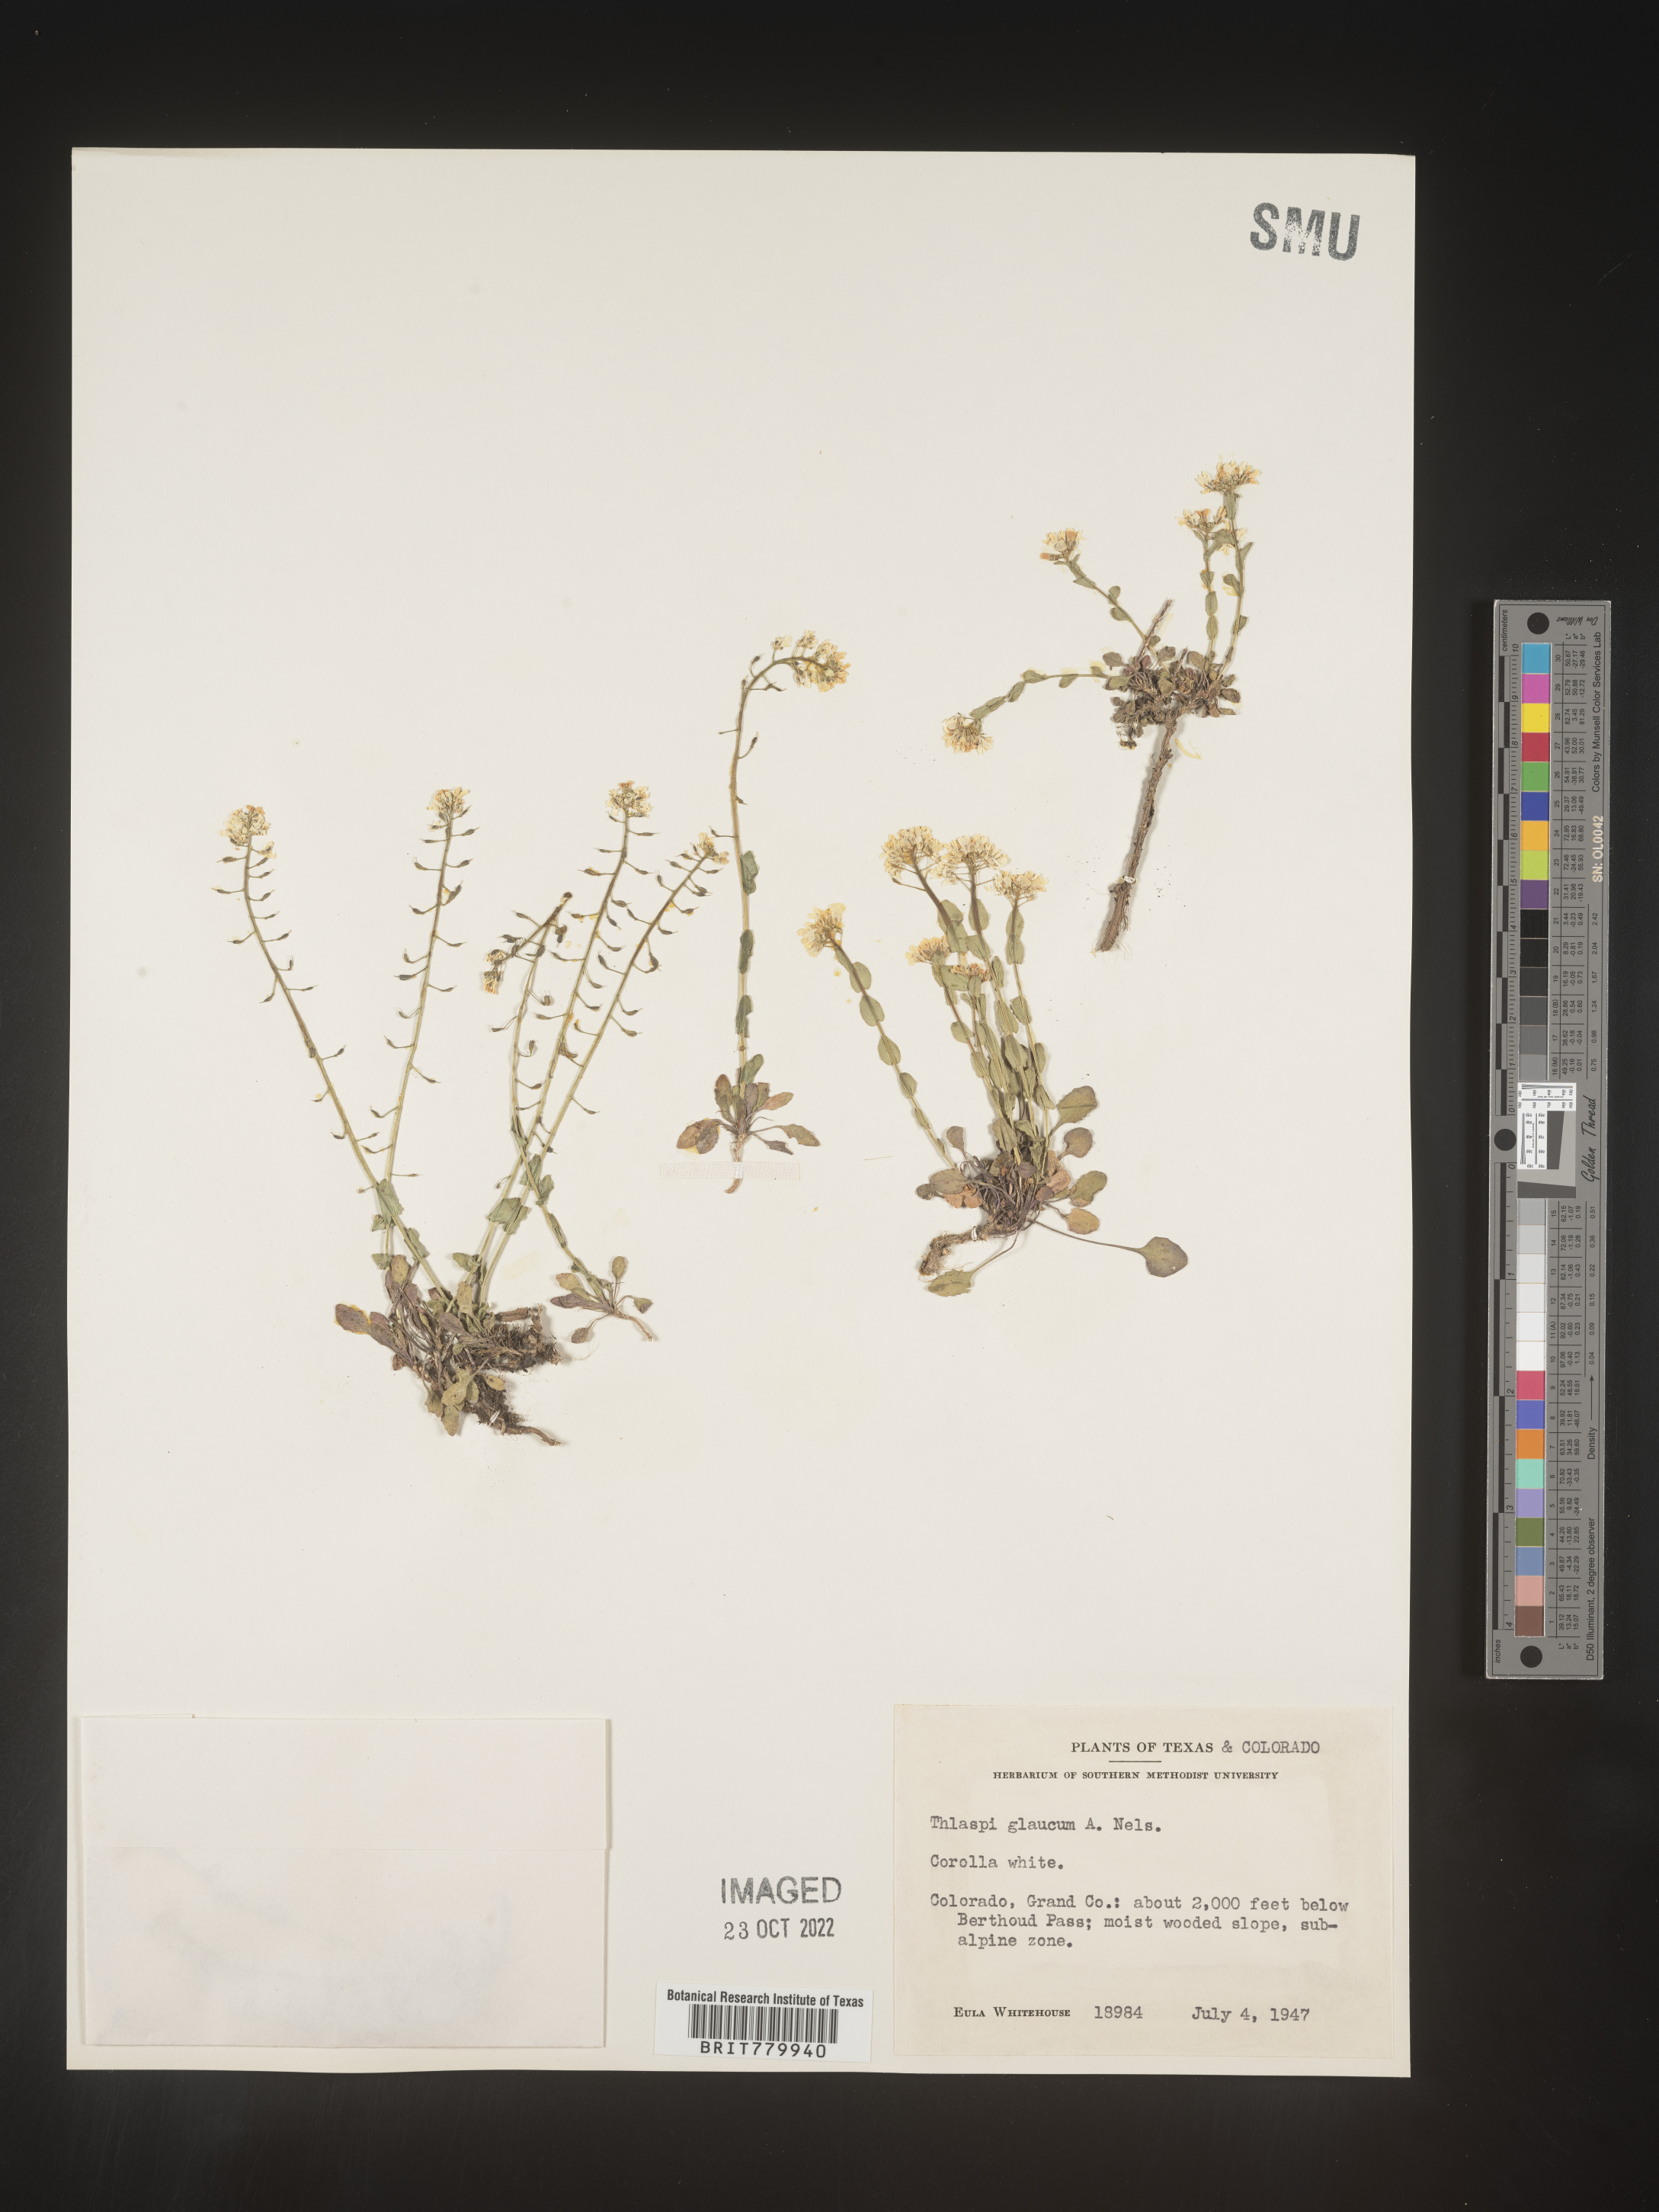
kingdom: Plantae
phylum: Tracheophyta
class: Magnoliopsida
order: Brassicales
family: Brassicaceae
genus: Thlaspi
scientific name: Thlaspi
